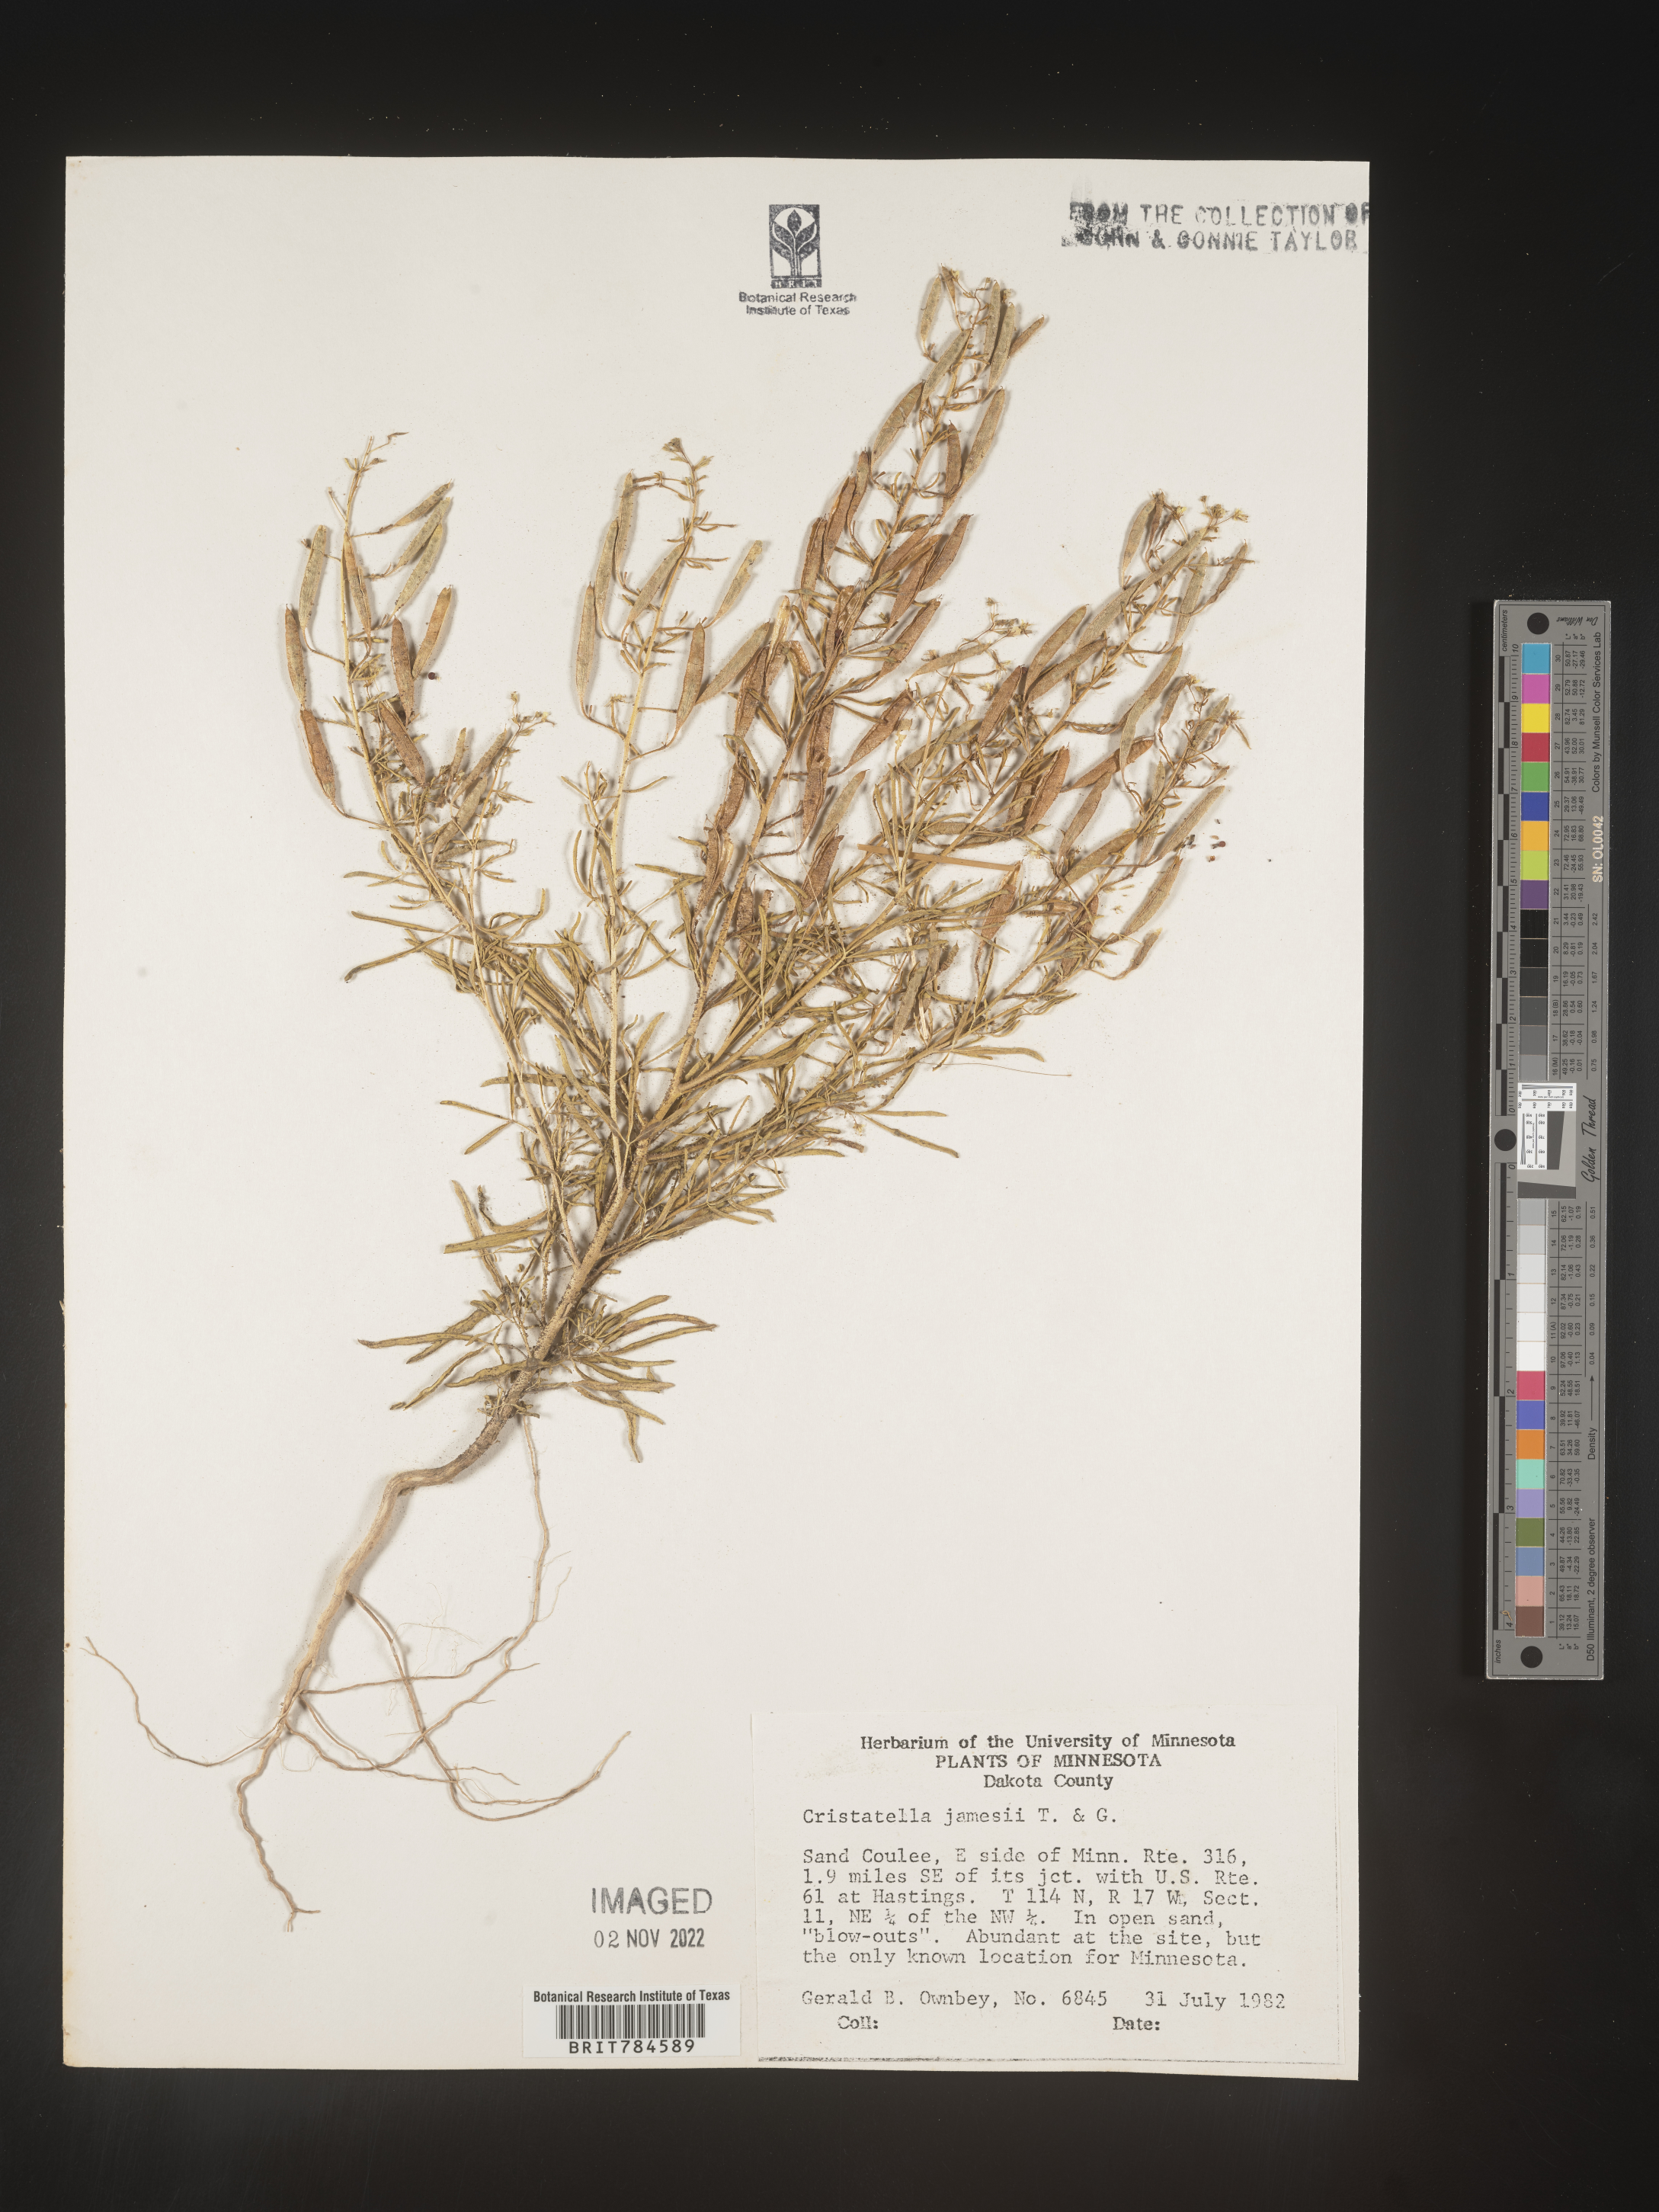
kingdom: Plantae
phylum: Tracheophyta
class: Magnoliopsida
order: Brassicales
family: Cleomaceae
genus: Polanisia
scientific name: Polanisia
